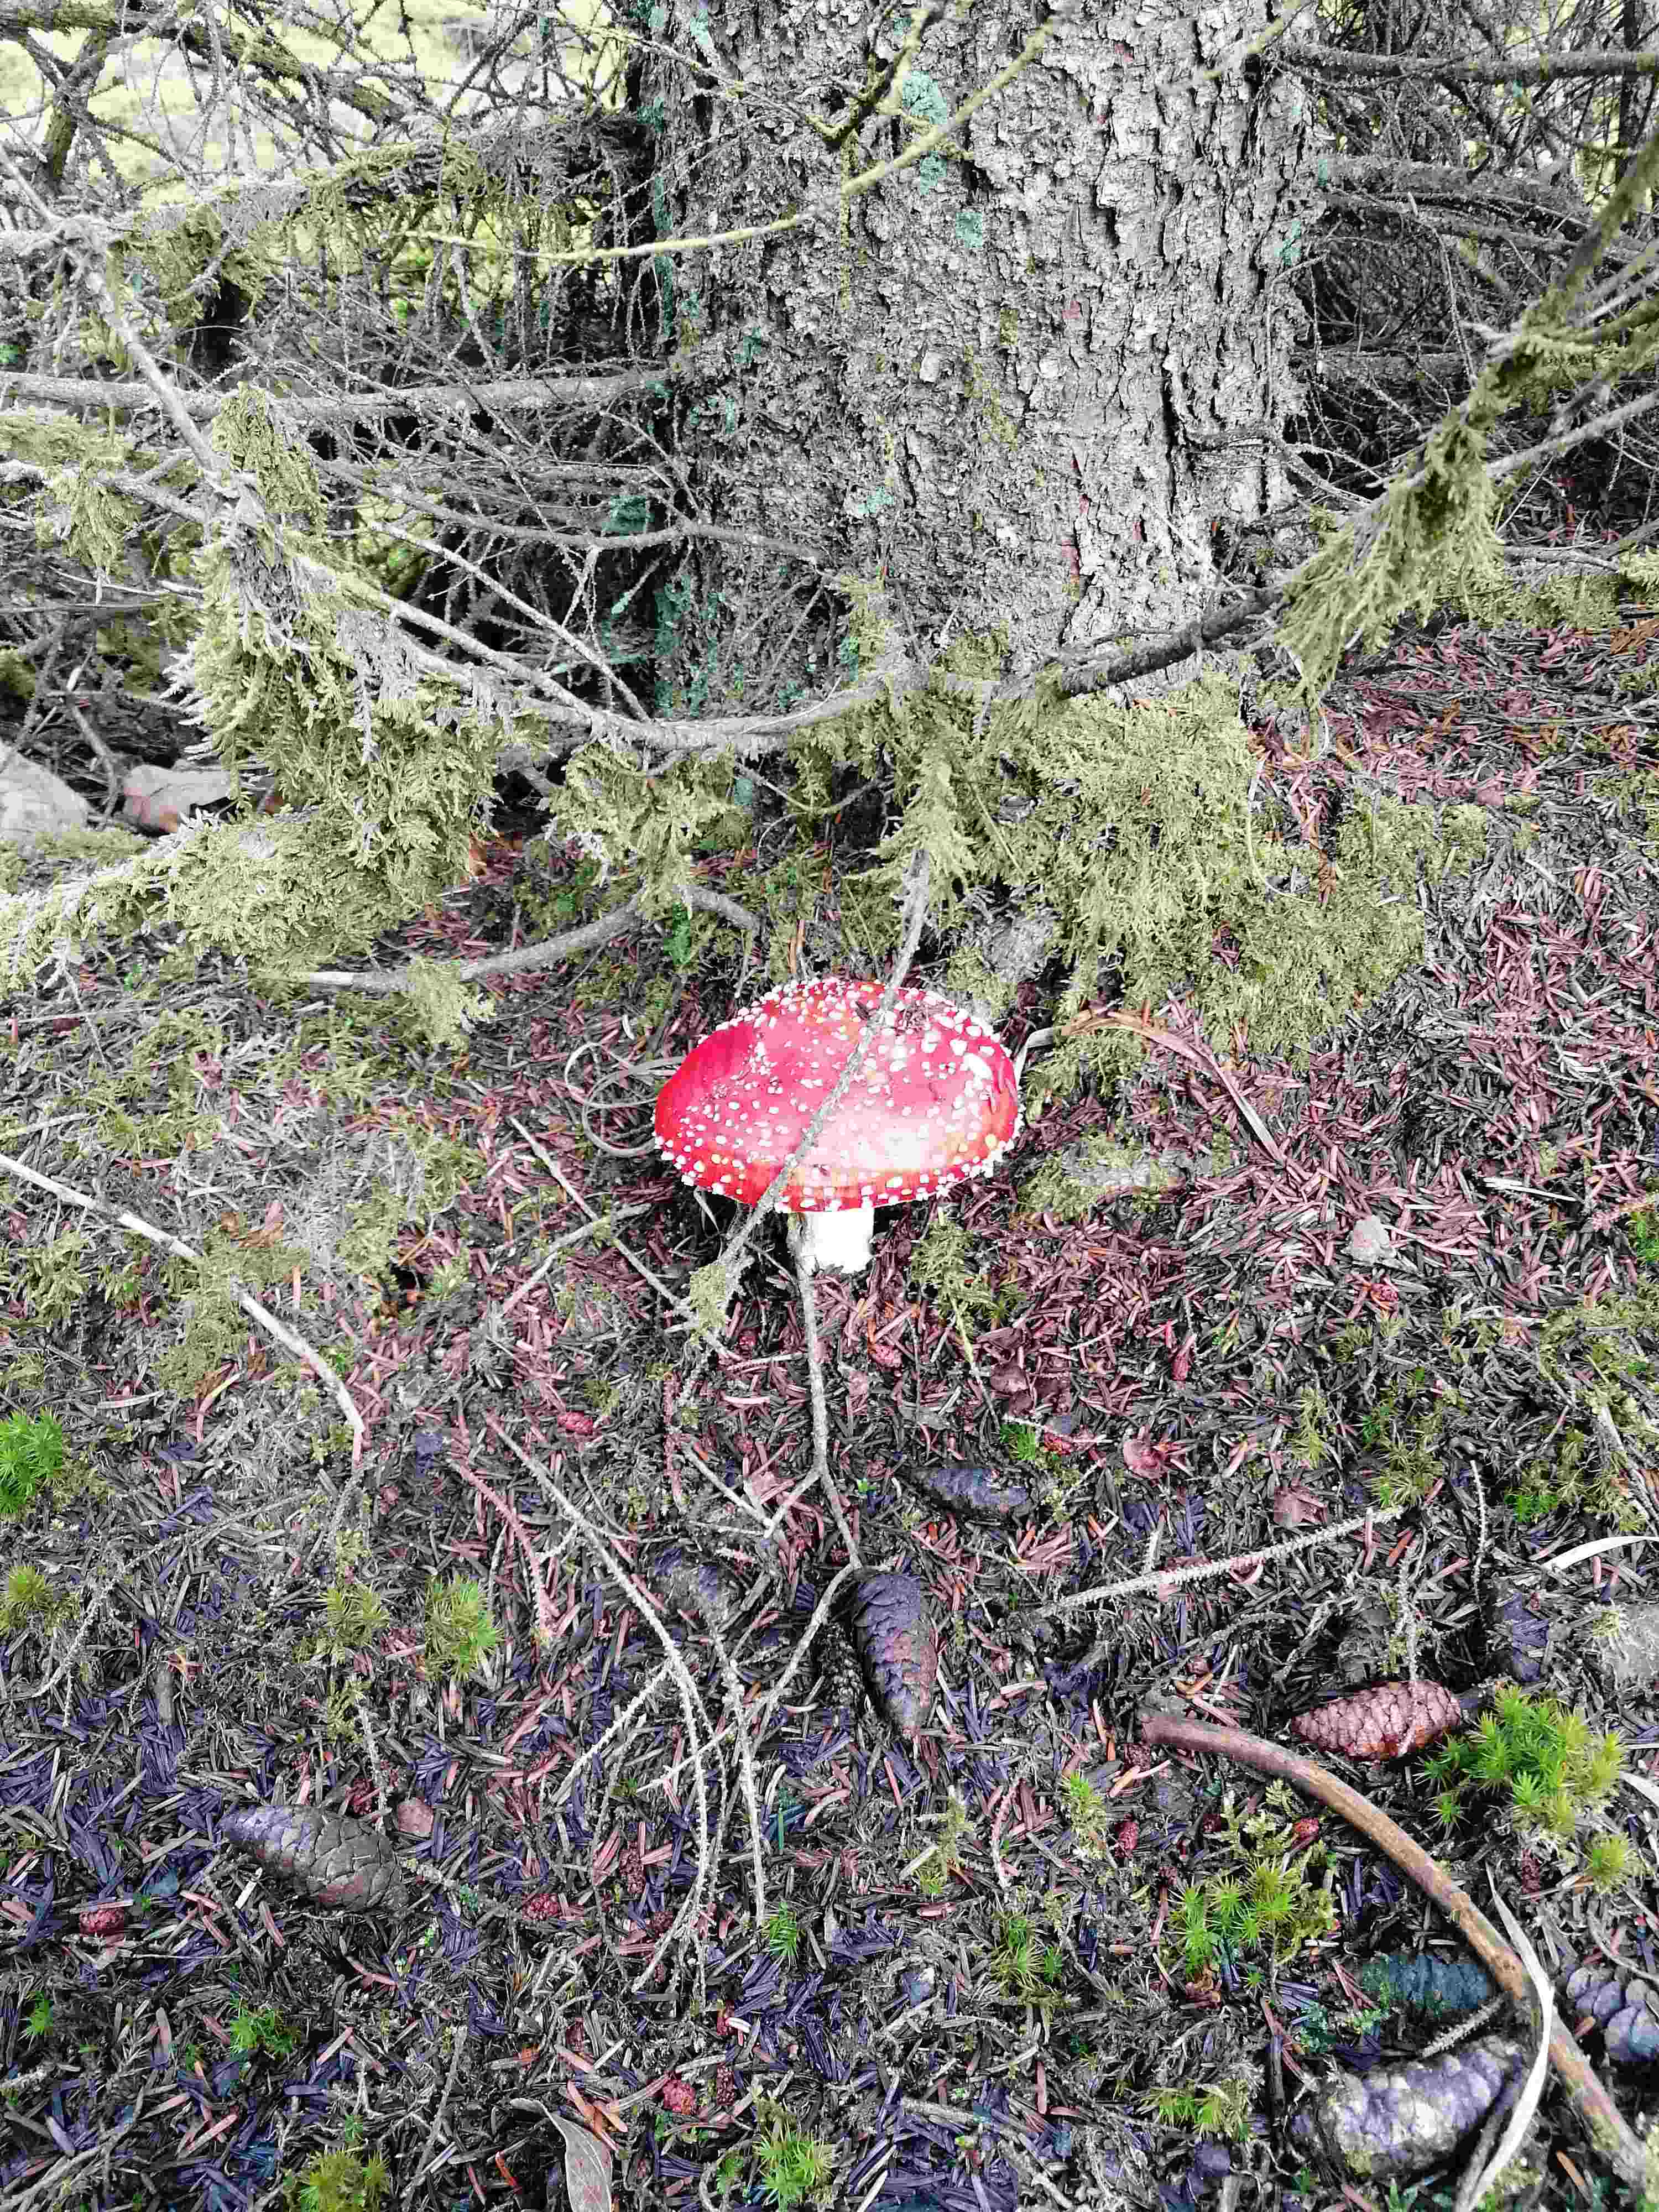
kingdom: Fungi
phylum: Basidiomycota
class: Agaricomycetes
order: Agaricales
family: Amanitaceae
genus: Amanita
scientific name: Amanita muscaria
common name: rød fluesvamp
